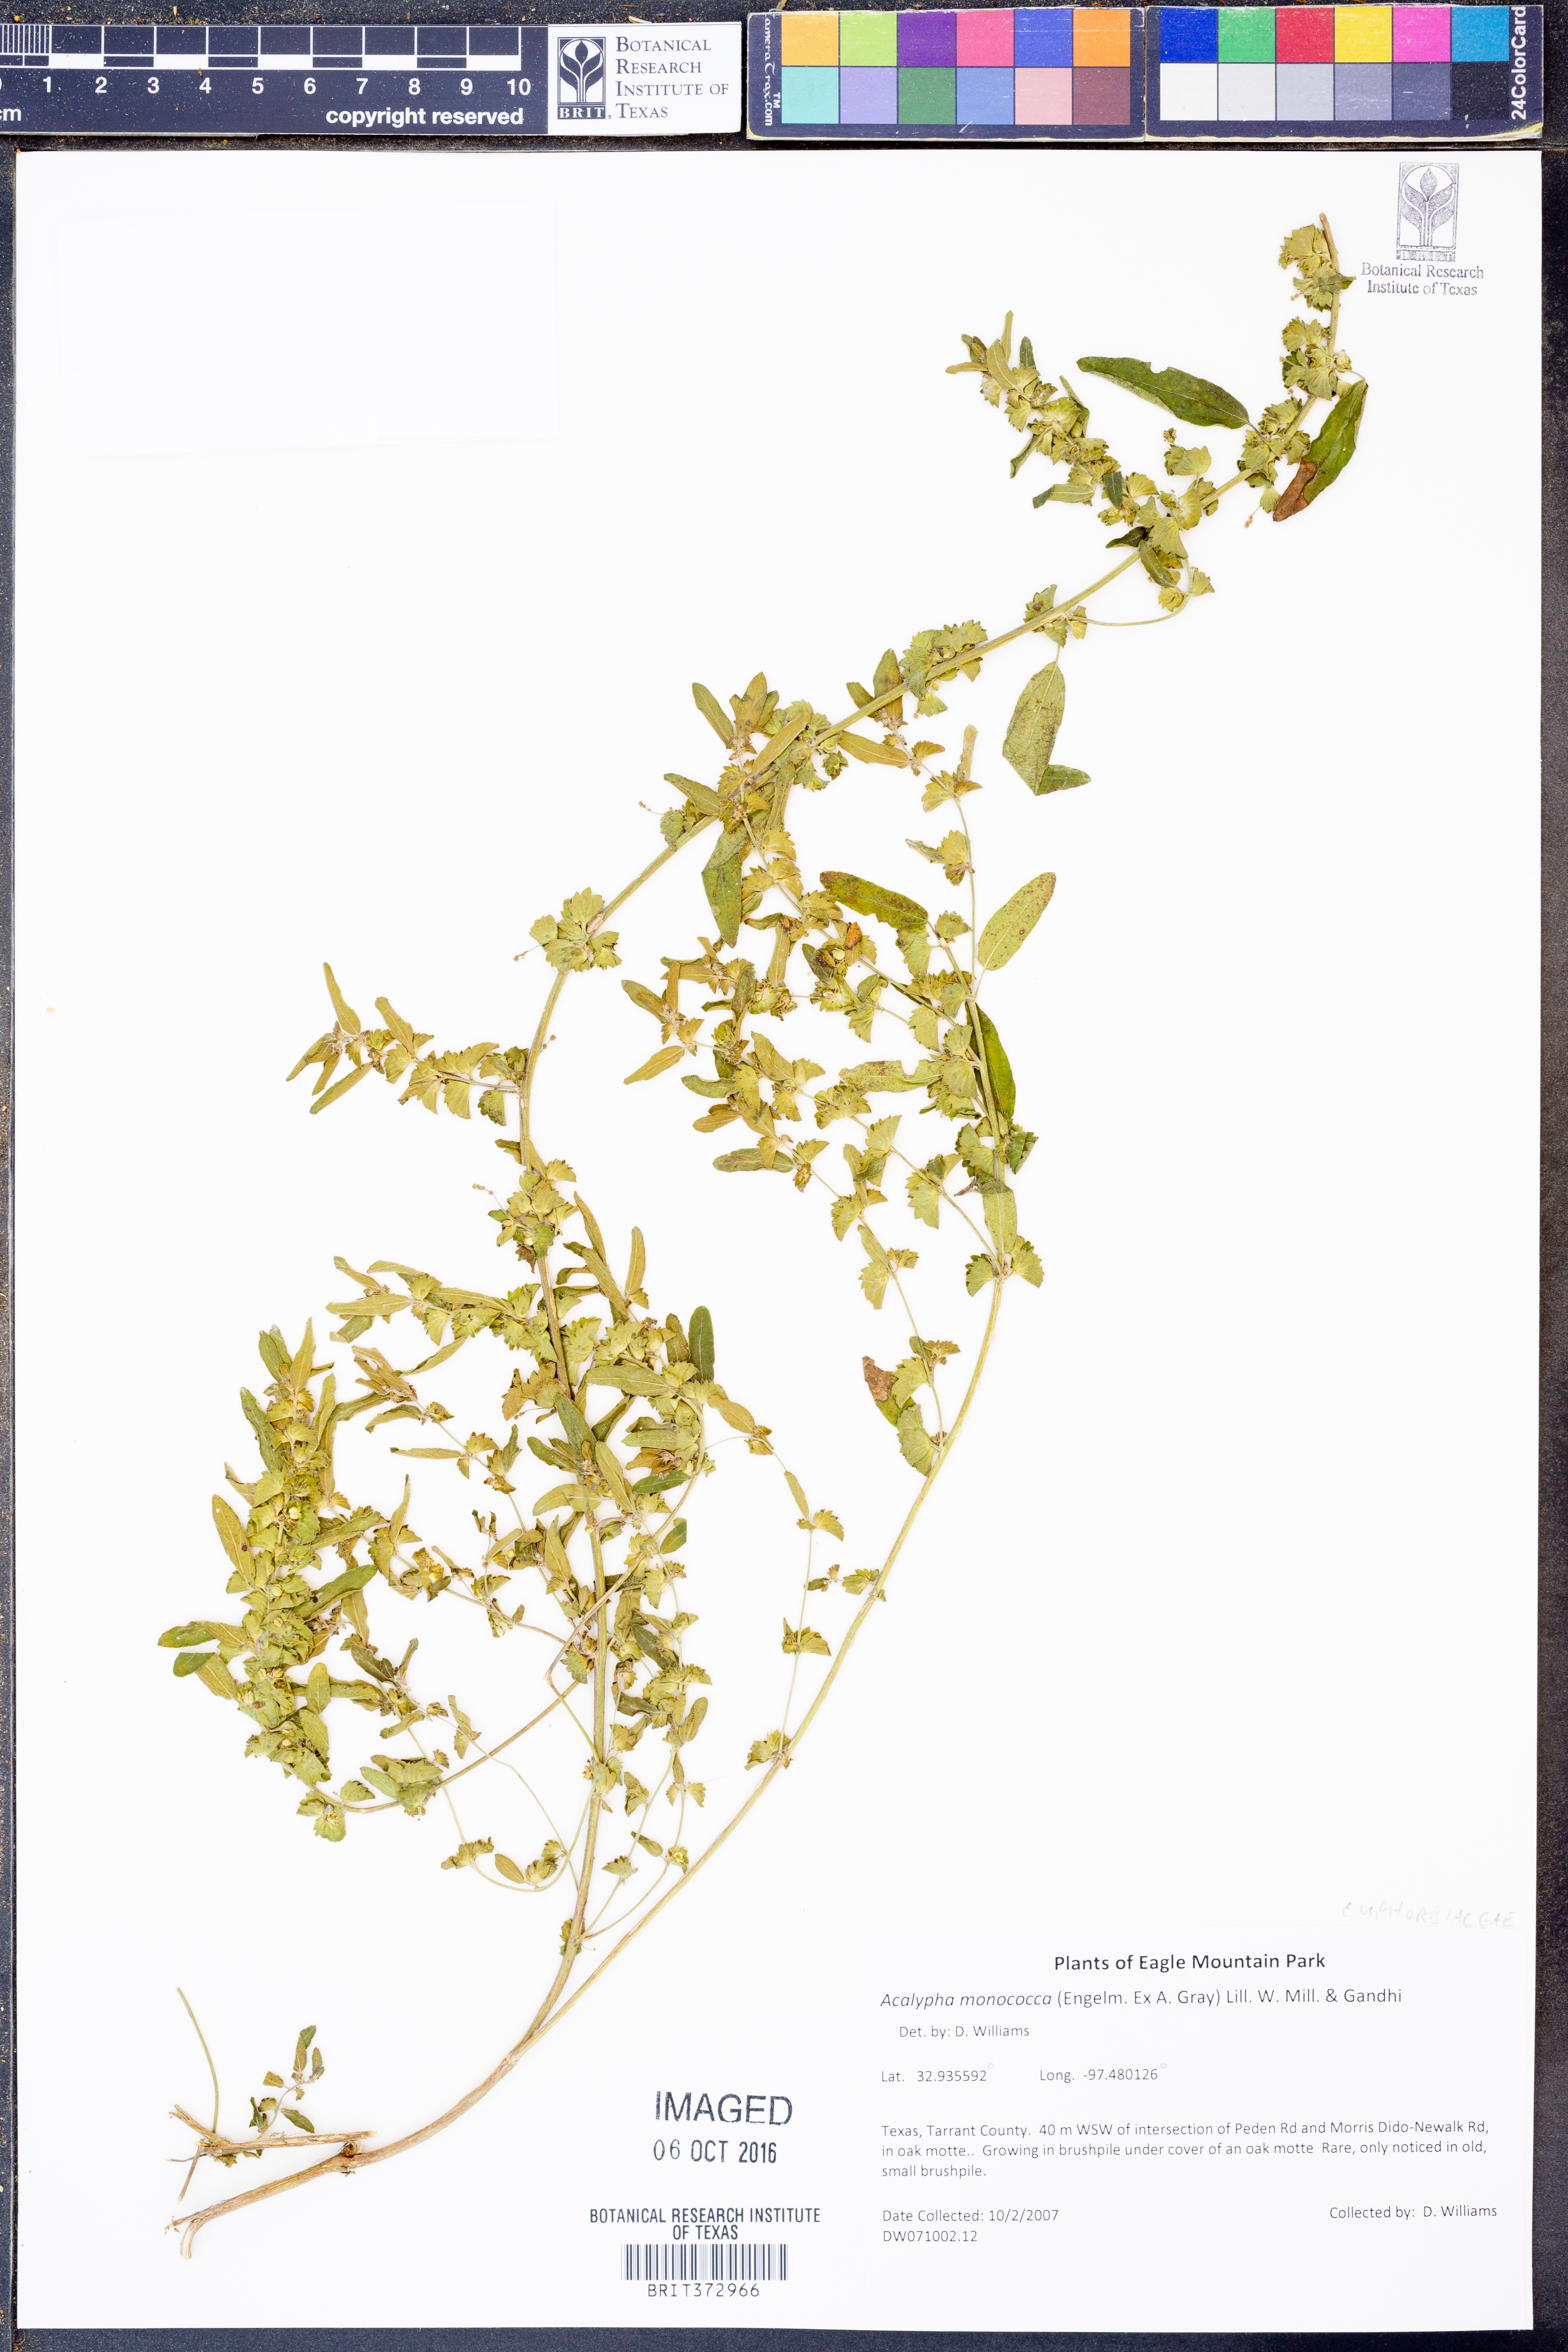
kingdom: Plantae
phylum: Tracheophyta
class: Magnoliopsida
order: Malpighiales
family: Euphorbiaceae
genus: Acalypha
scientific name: Acalypha monococca
